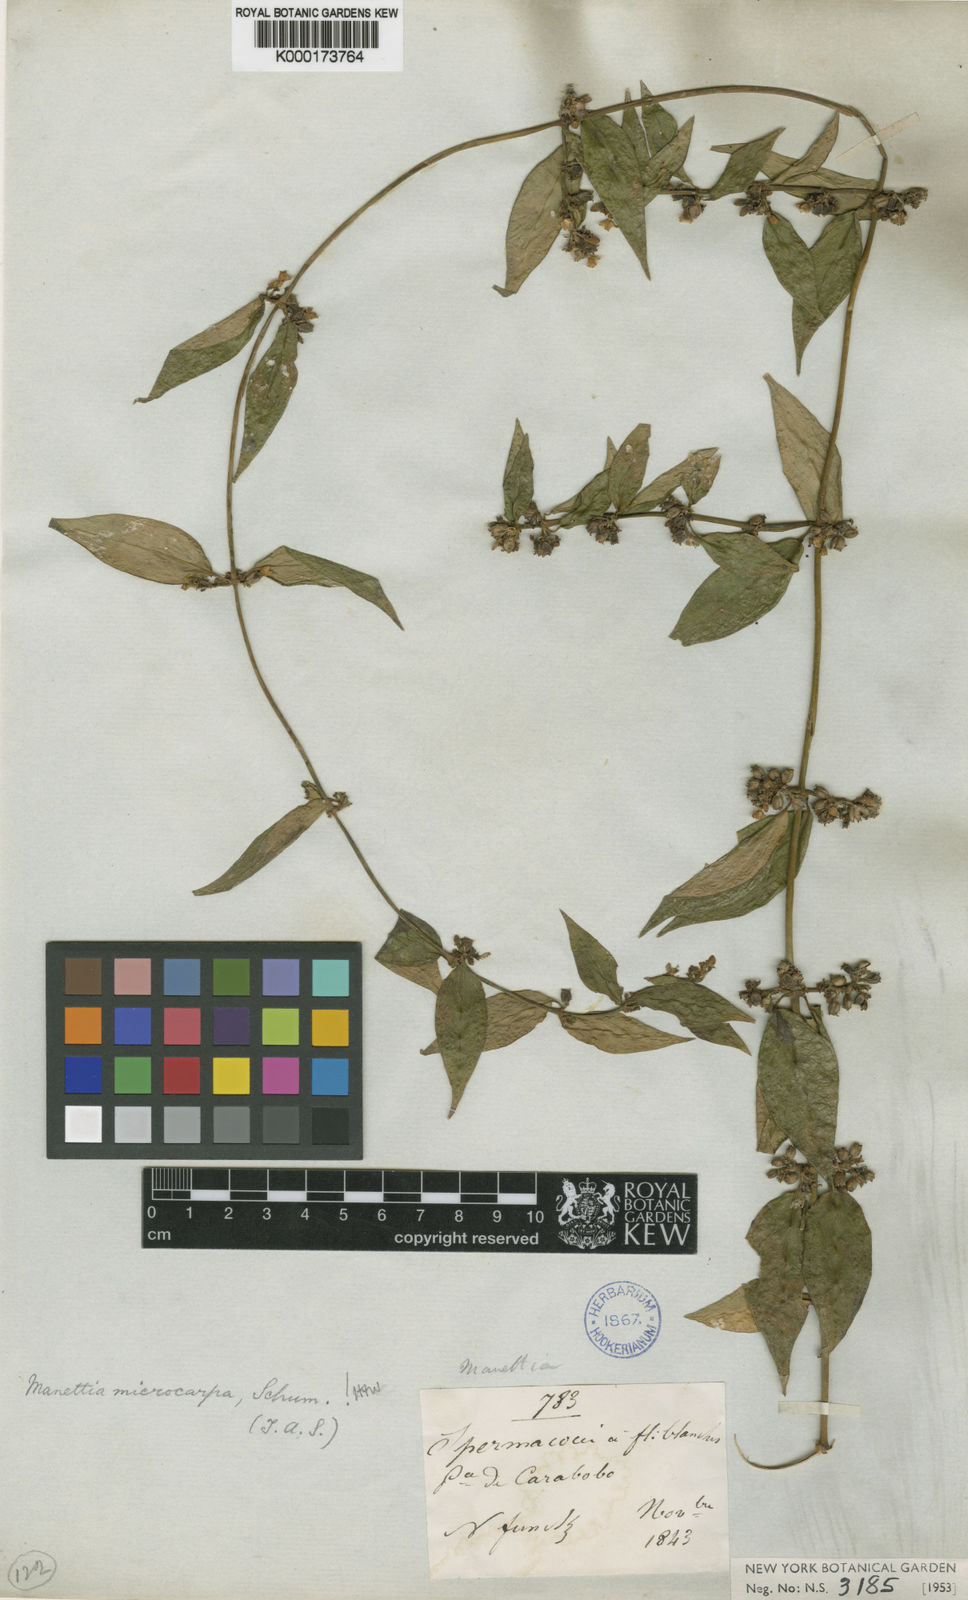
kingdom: Plantae
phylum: Tracheophyta
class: Magnoliopsida
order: Gentianales
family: Rubiaceae
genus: Manettia
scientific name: Manettia barbata
